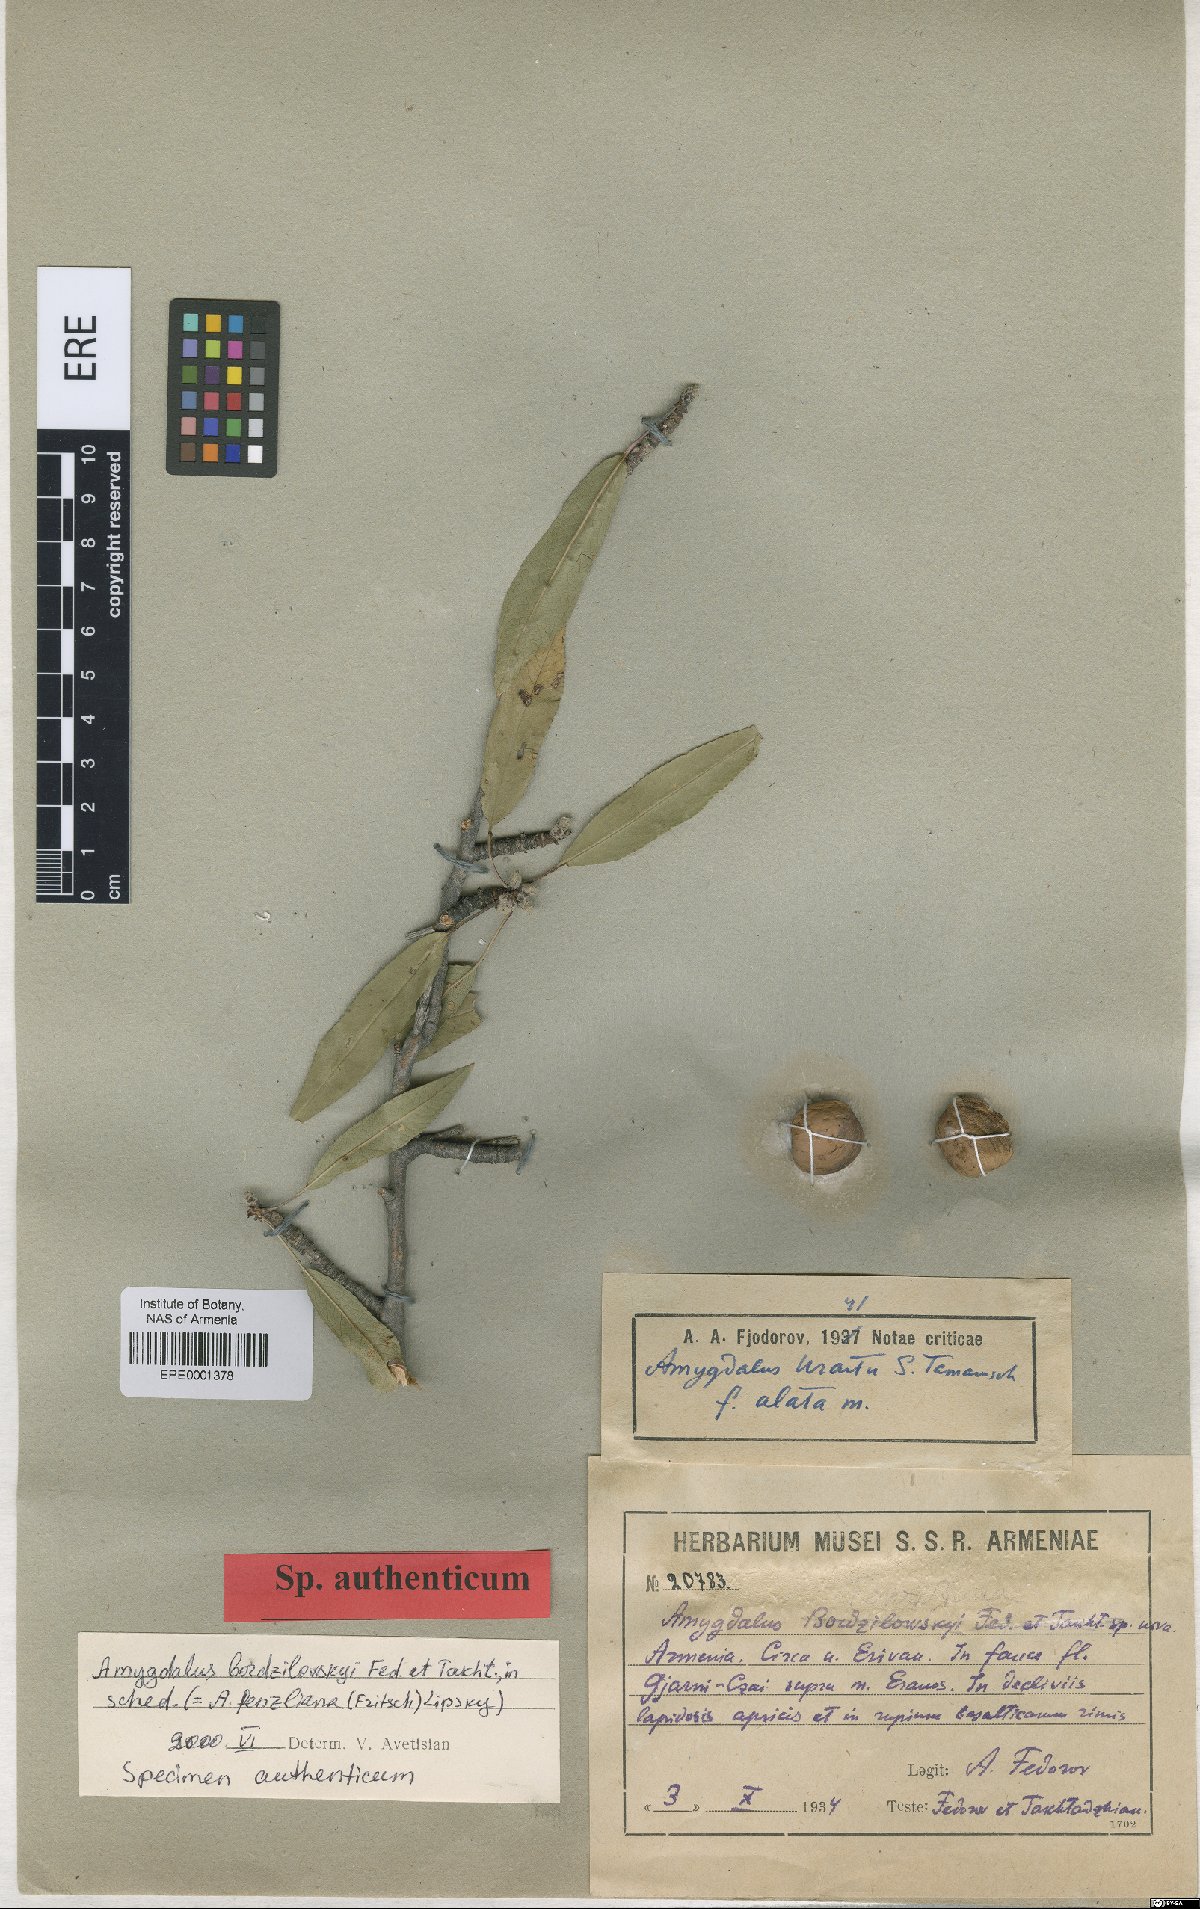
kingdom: Plantae
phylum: Tracheophyta
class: Magnoliopsida
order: Rosales
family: Rosaceae
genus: Prunus
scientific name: Prunus
